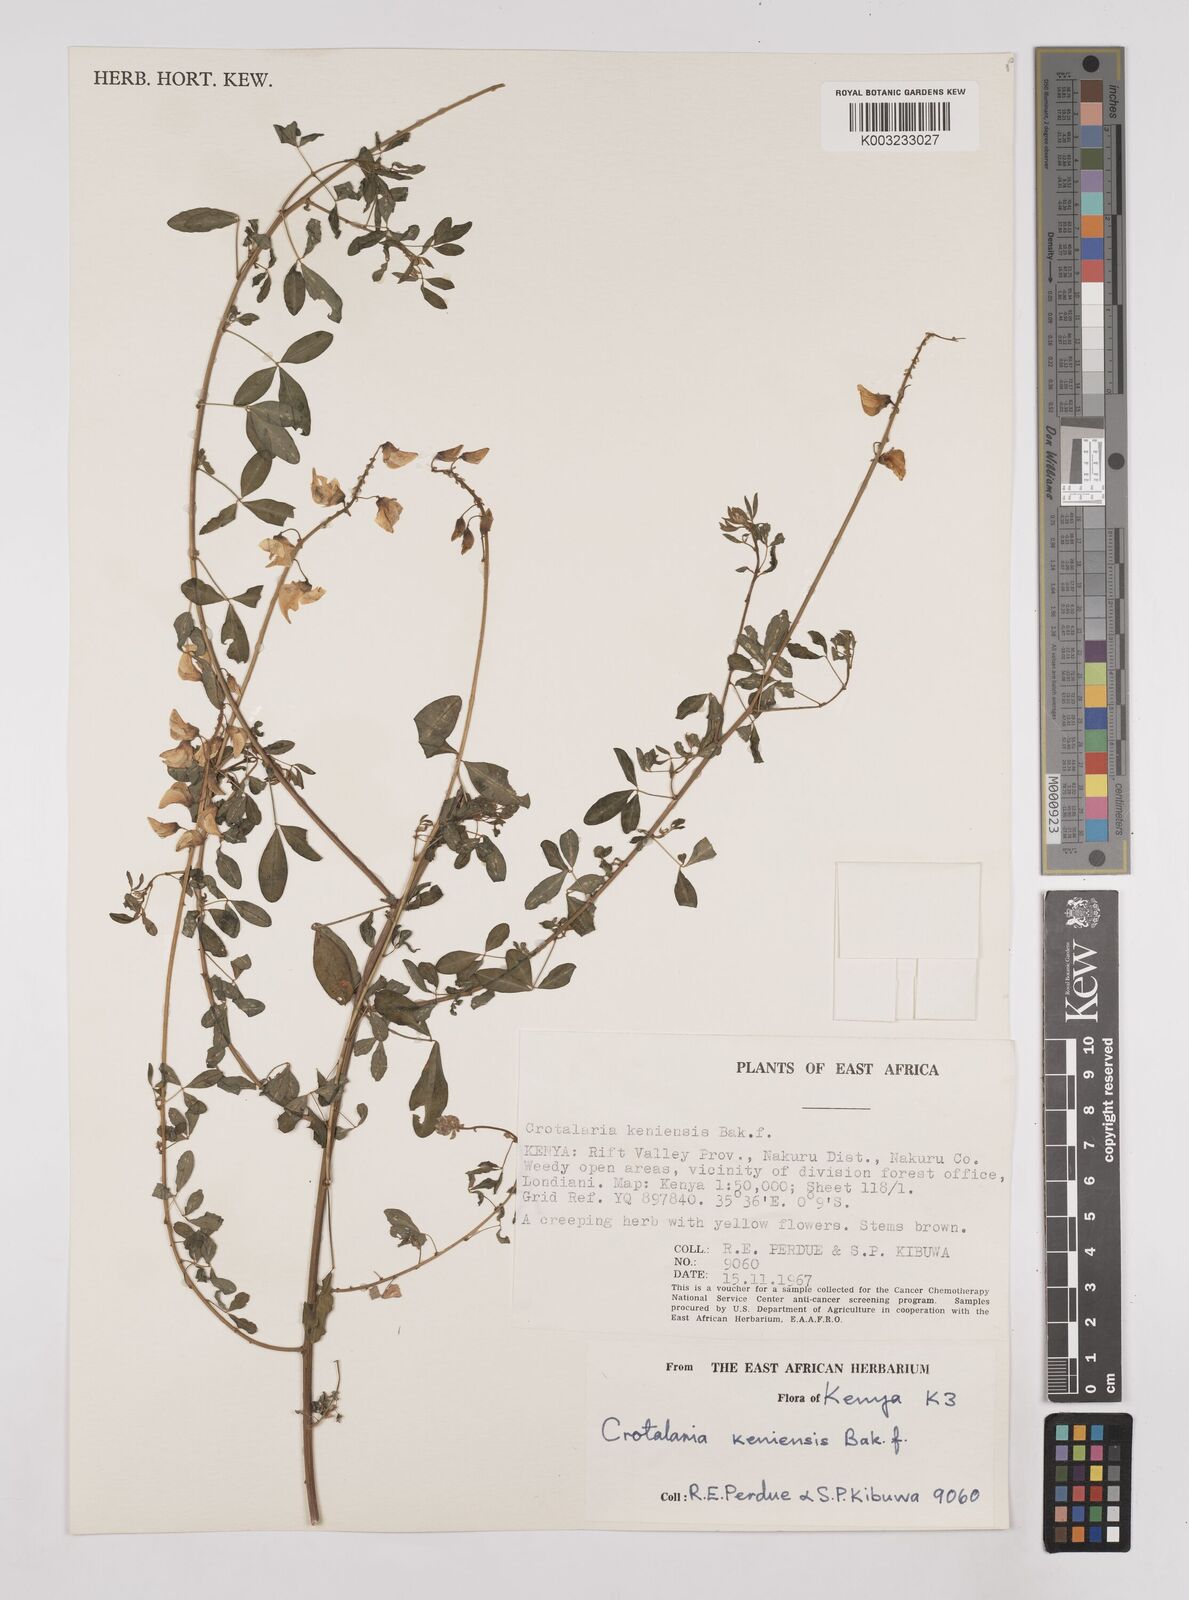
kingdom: Plantae
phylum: Tracheophyta
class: Magnoliopsida
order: Fabales
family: Fabaceae
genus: Crotalaria
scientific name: Crotalaria keniensis
